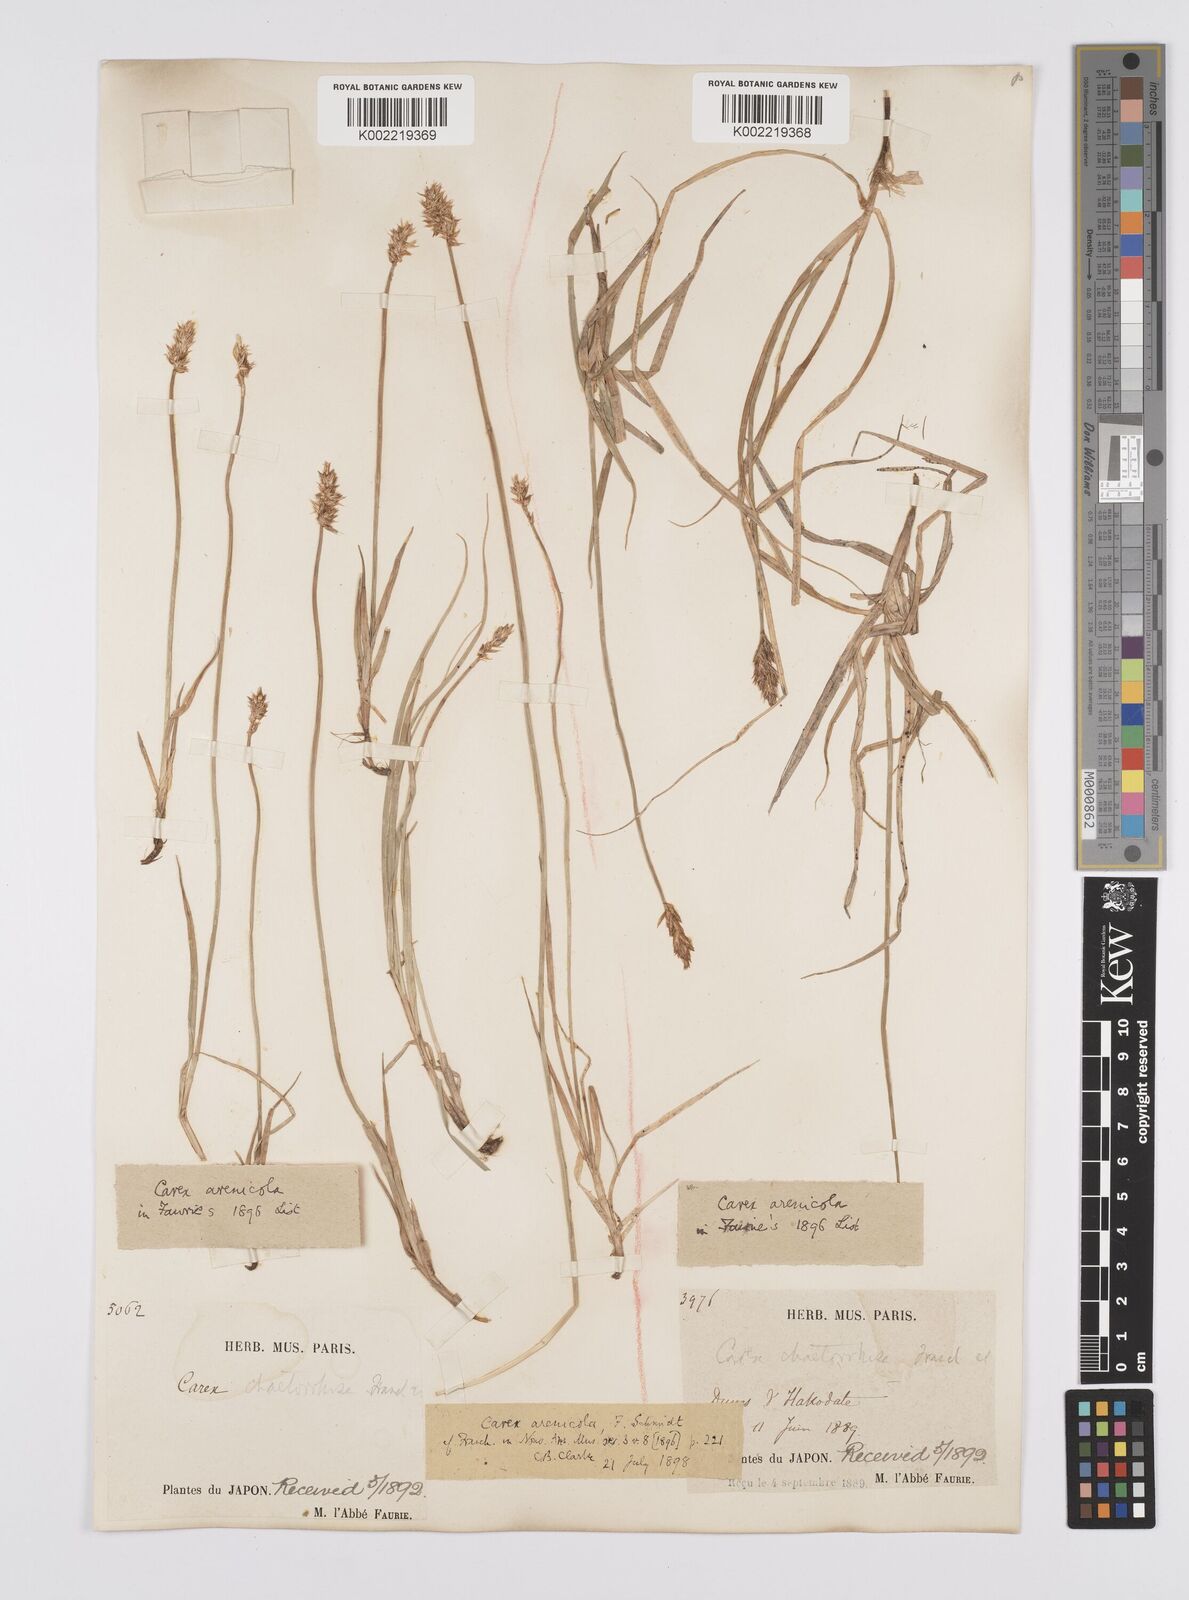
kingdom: Plantae
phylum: Tracheophyta
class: Liliopsida
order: Poales
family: Cyperaceae
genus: Carex
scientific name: Carex arenicola
